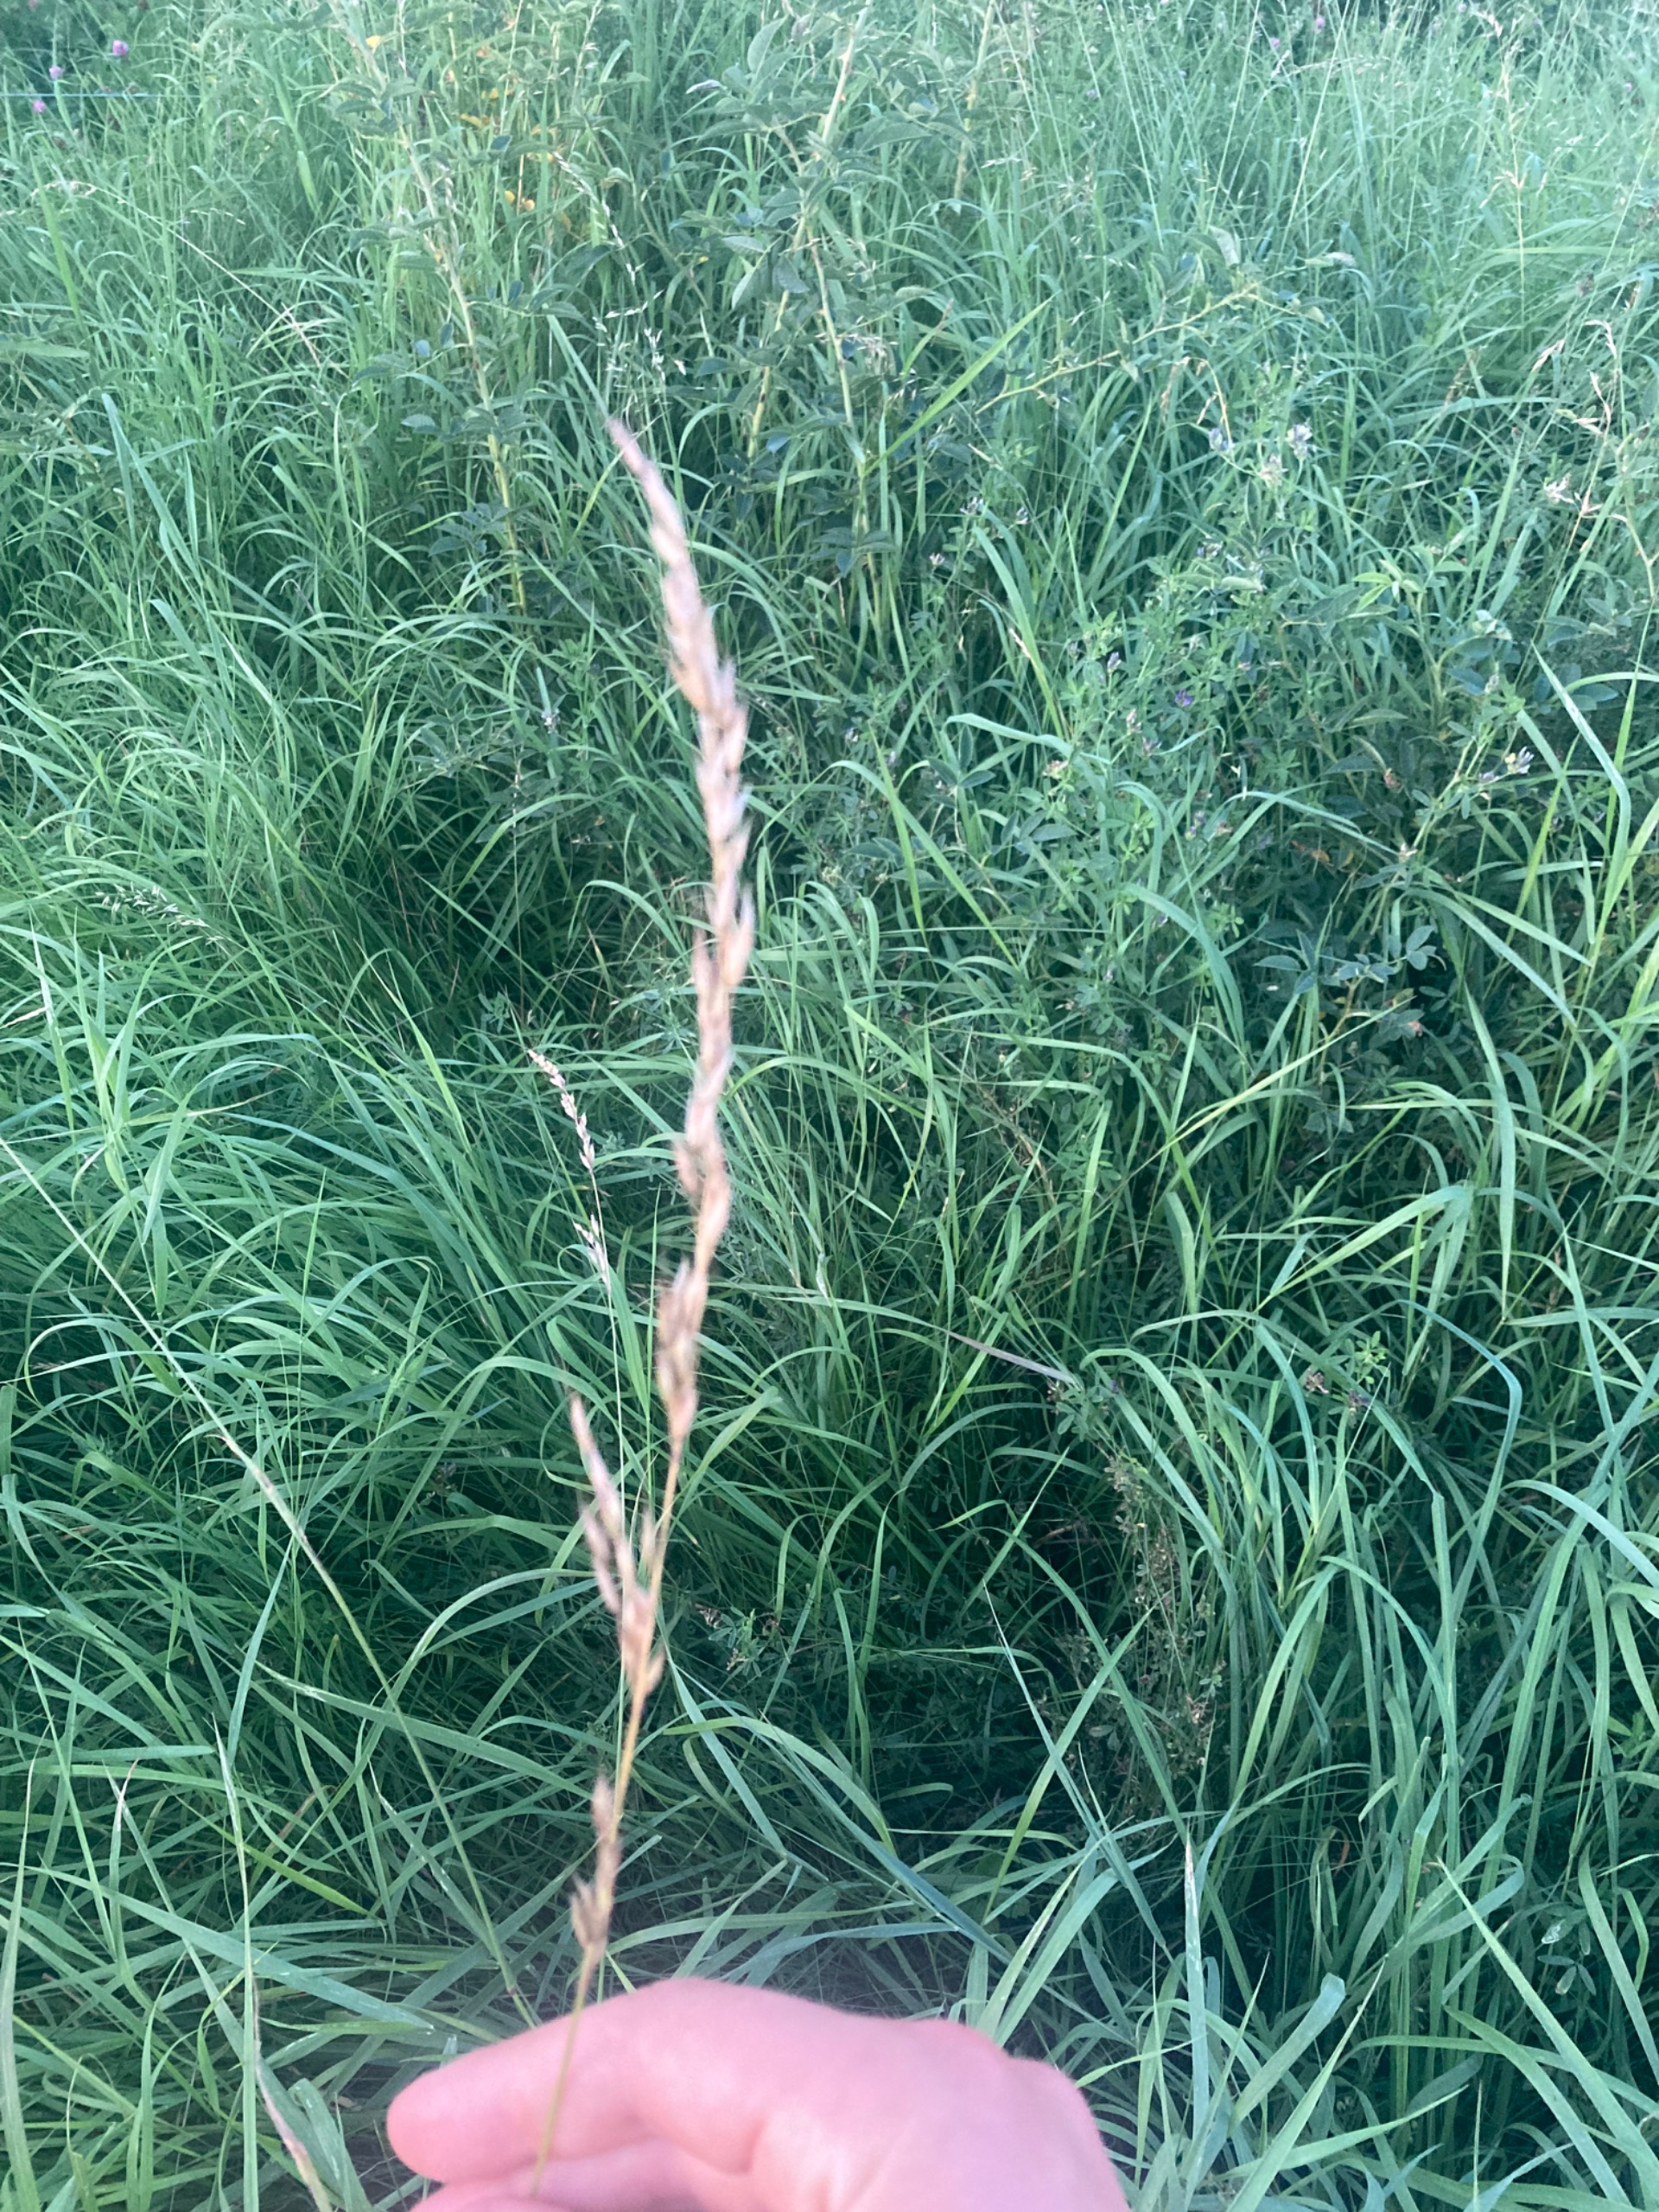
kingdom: Plantae
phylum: Tracheophyta
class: Liliopsida
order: Poales
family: Poaceae
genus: Arrhenatherum
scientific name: Arrhenatherum elatius
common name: Draphavre
